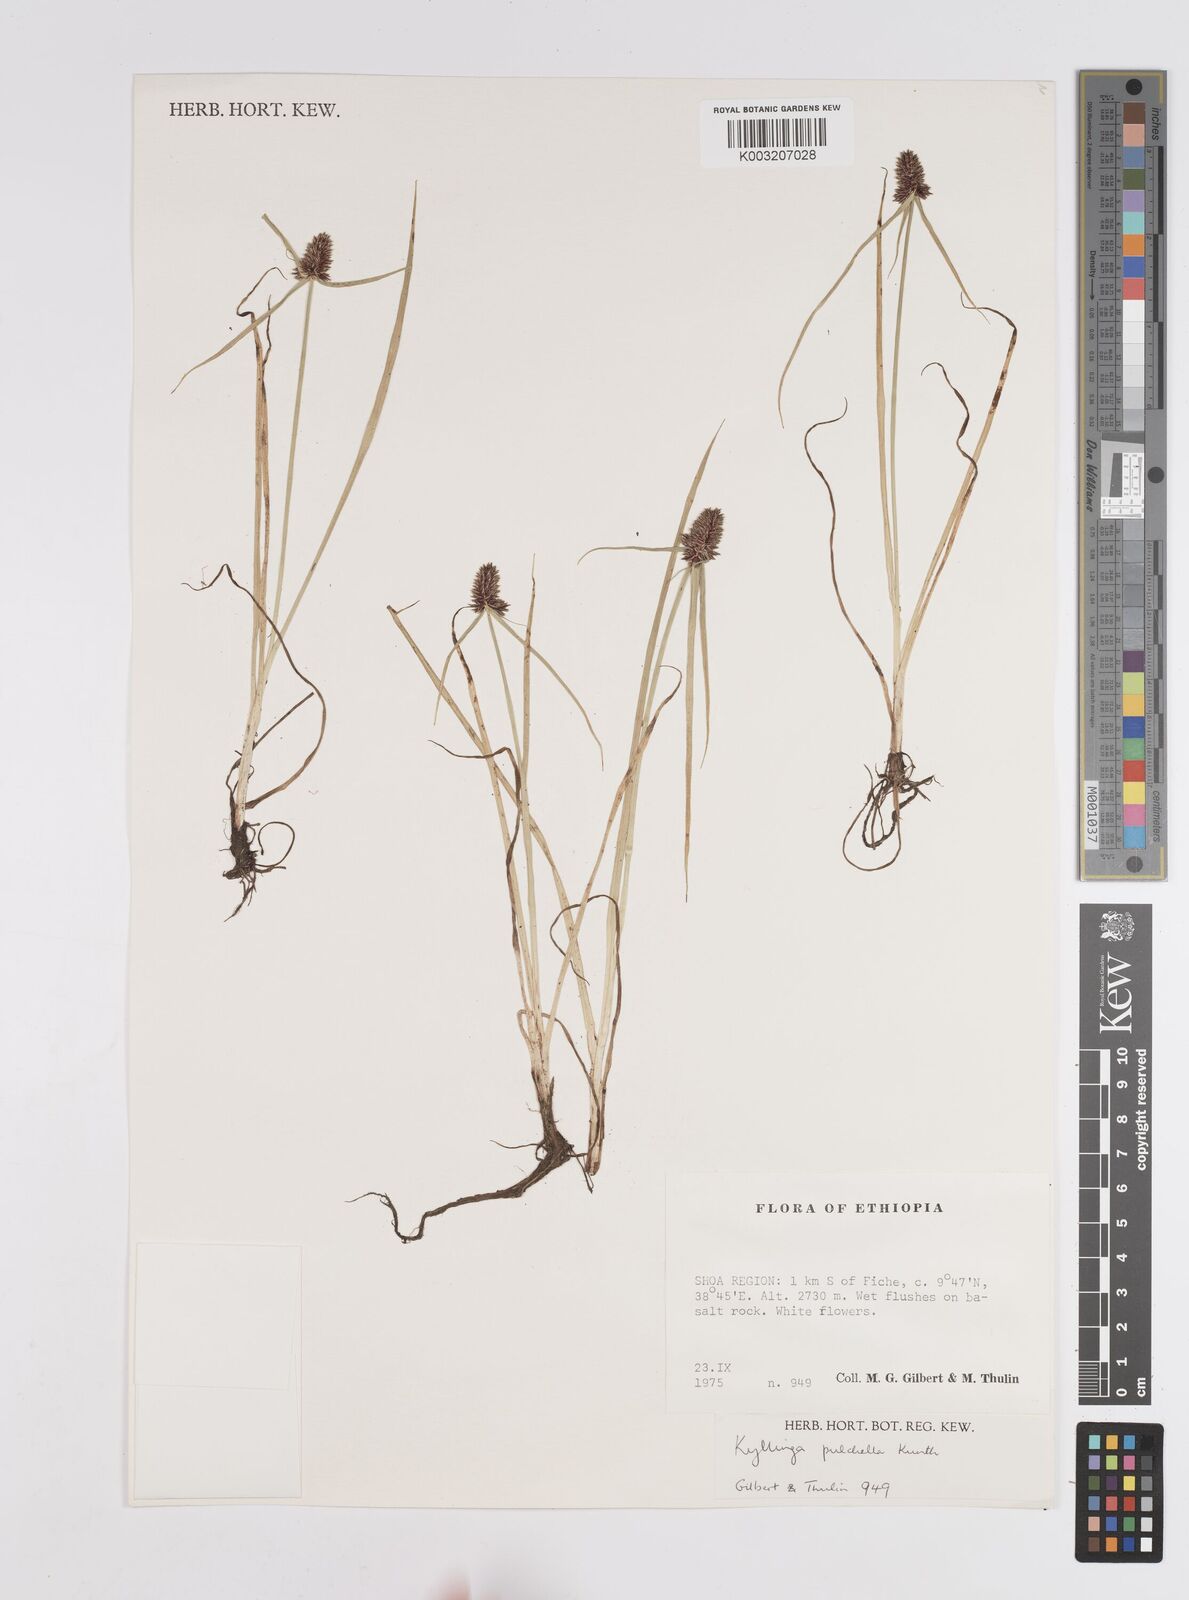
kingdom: Plantae
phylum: Tracheophyta
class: Liliopsida
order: Poales
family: Cyperaceae
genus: Cyperus
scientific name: Cyperus
